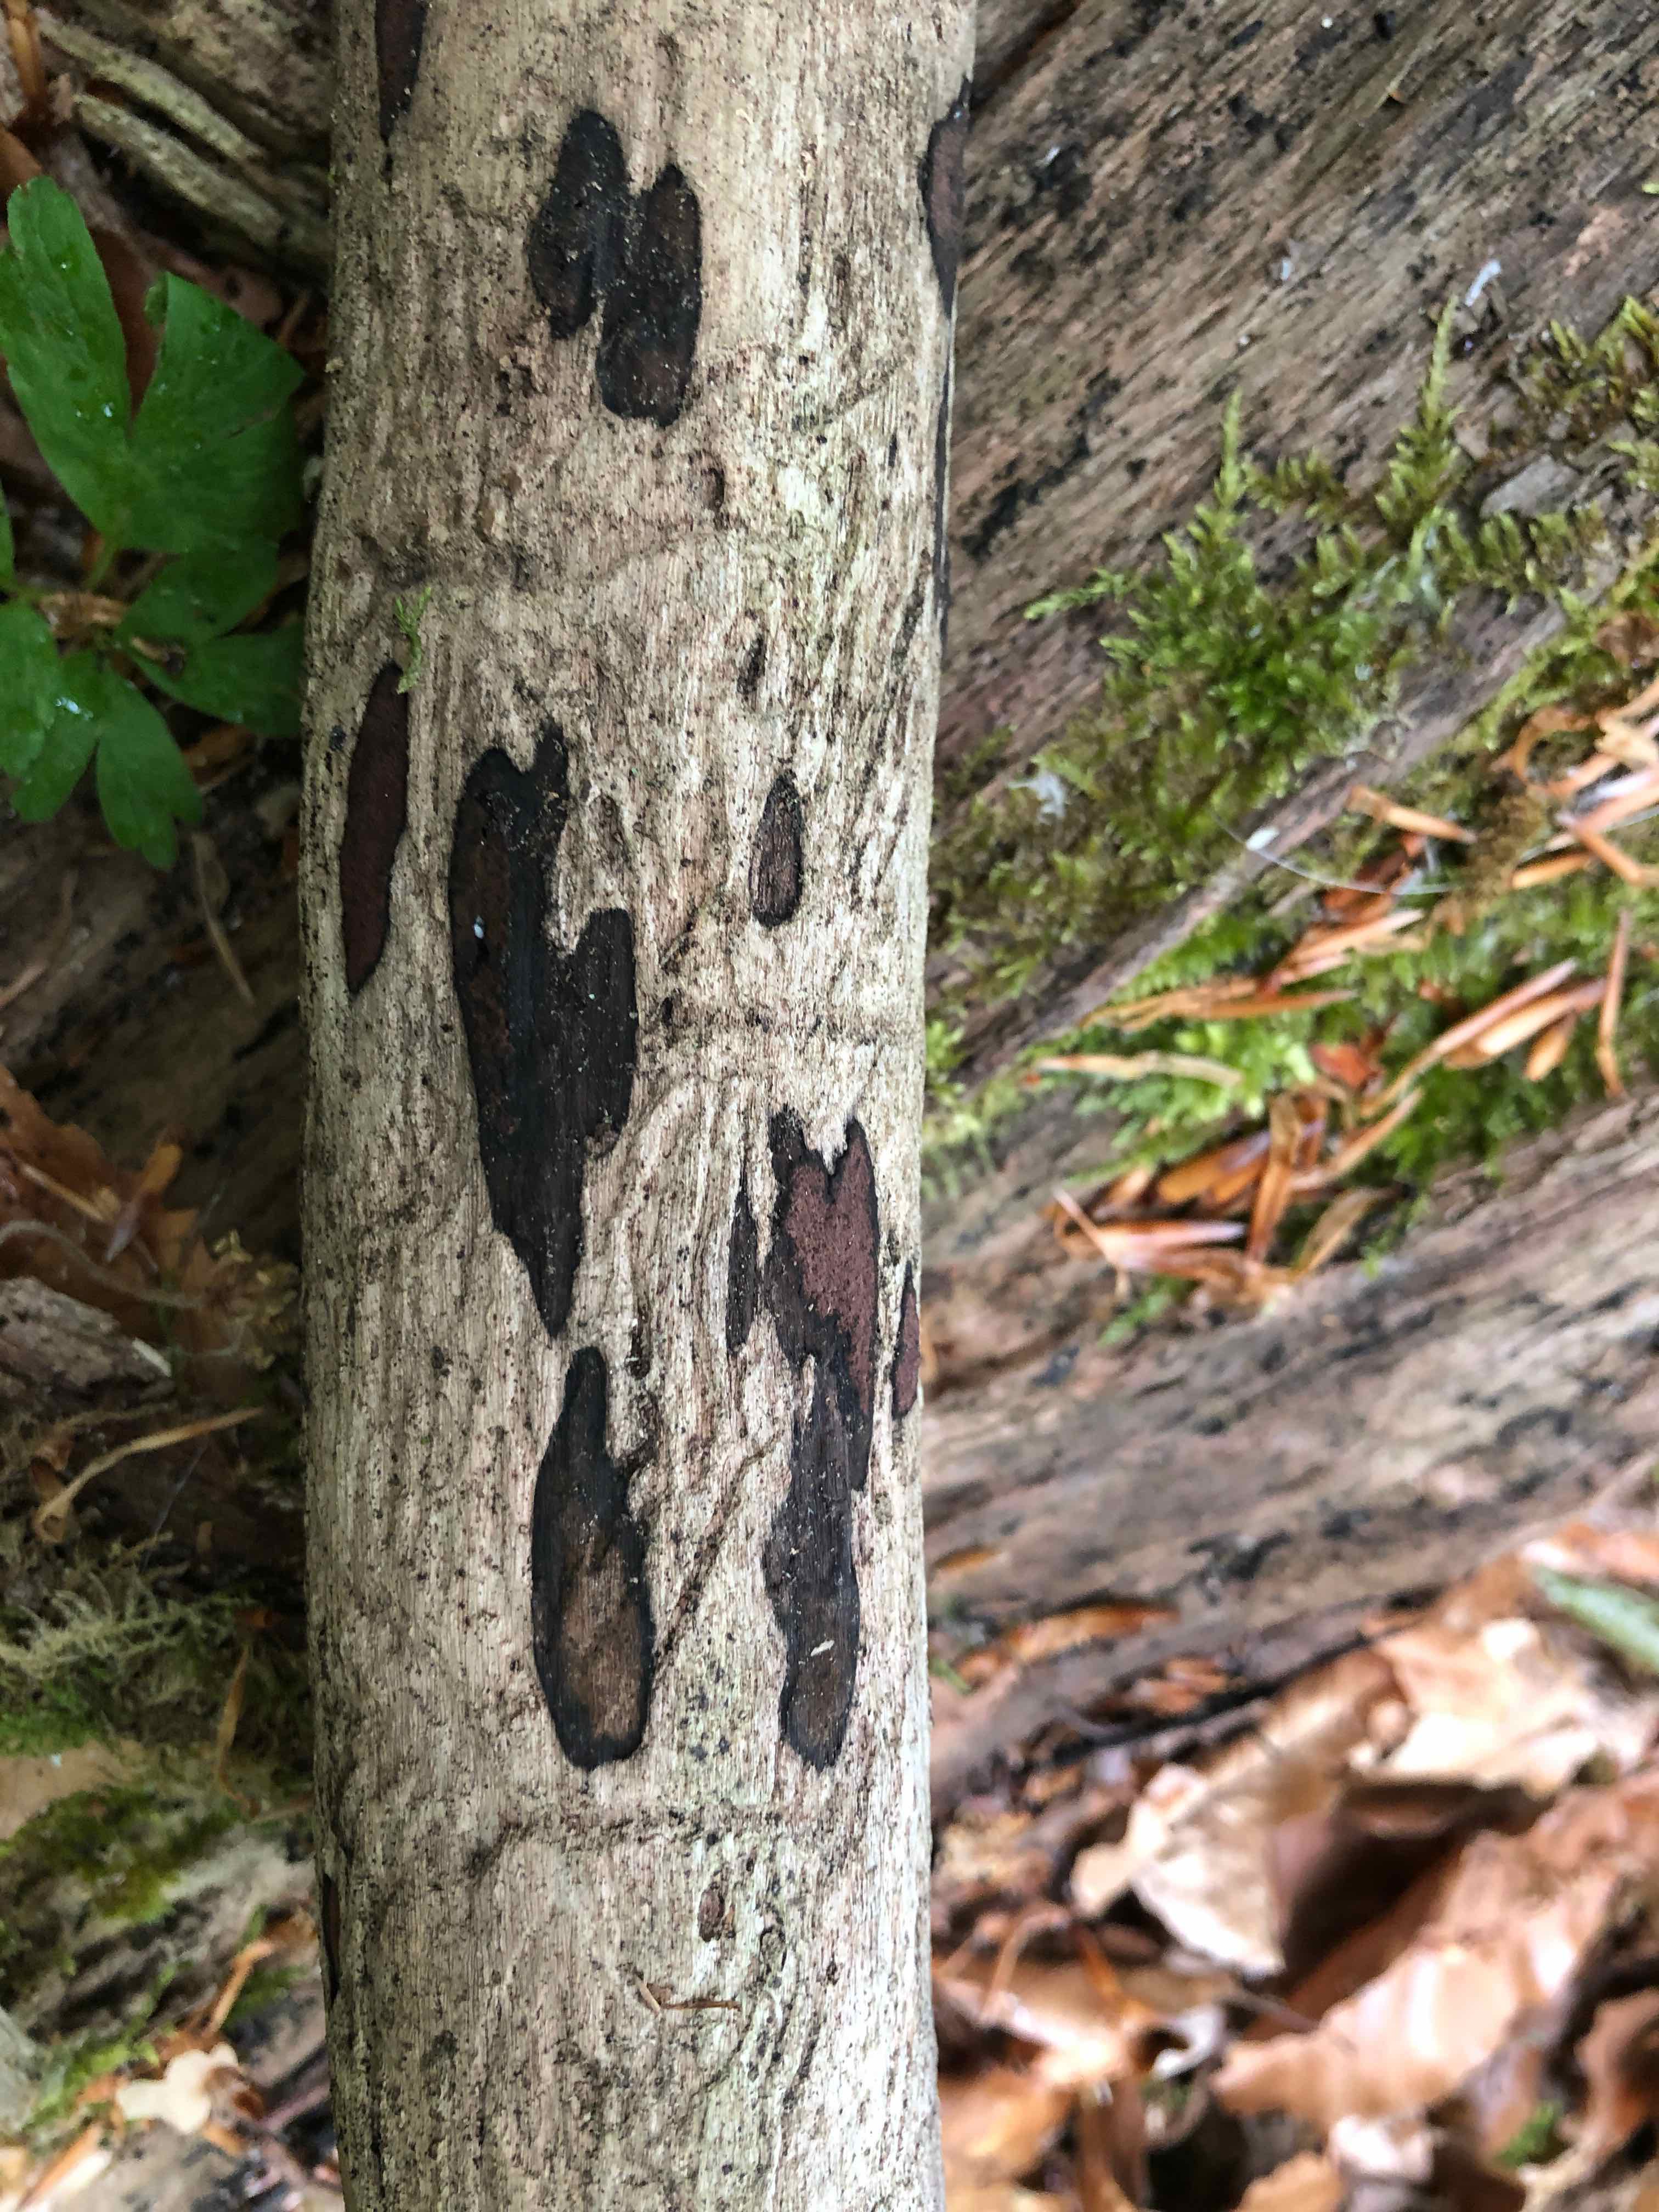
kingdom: Fungi
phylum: Ascomycota
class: Sordariomycetes
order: Xylariales
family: Hypoxylaceae
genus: Hypoxylon
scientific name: Hypoxylon petriniae
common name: nedsænket kulbær
